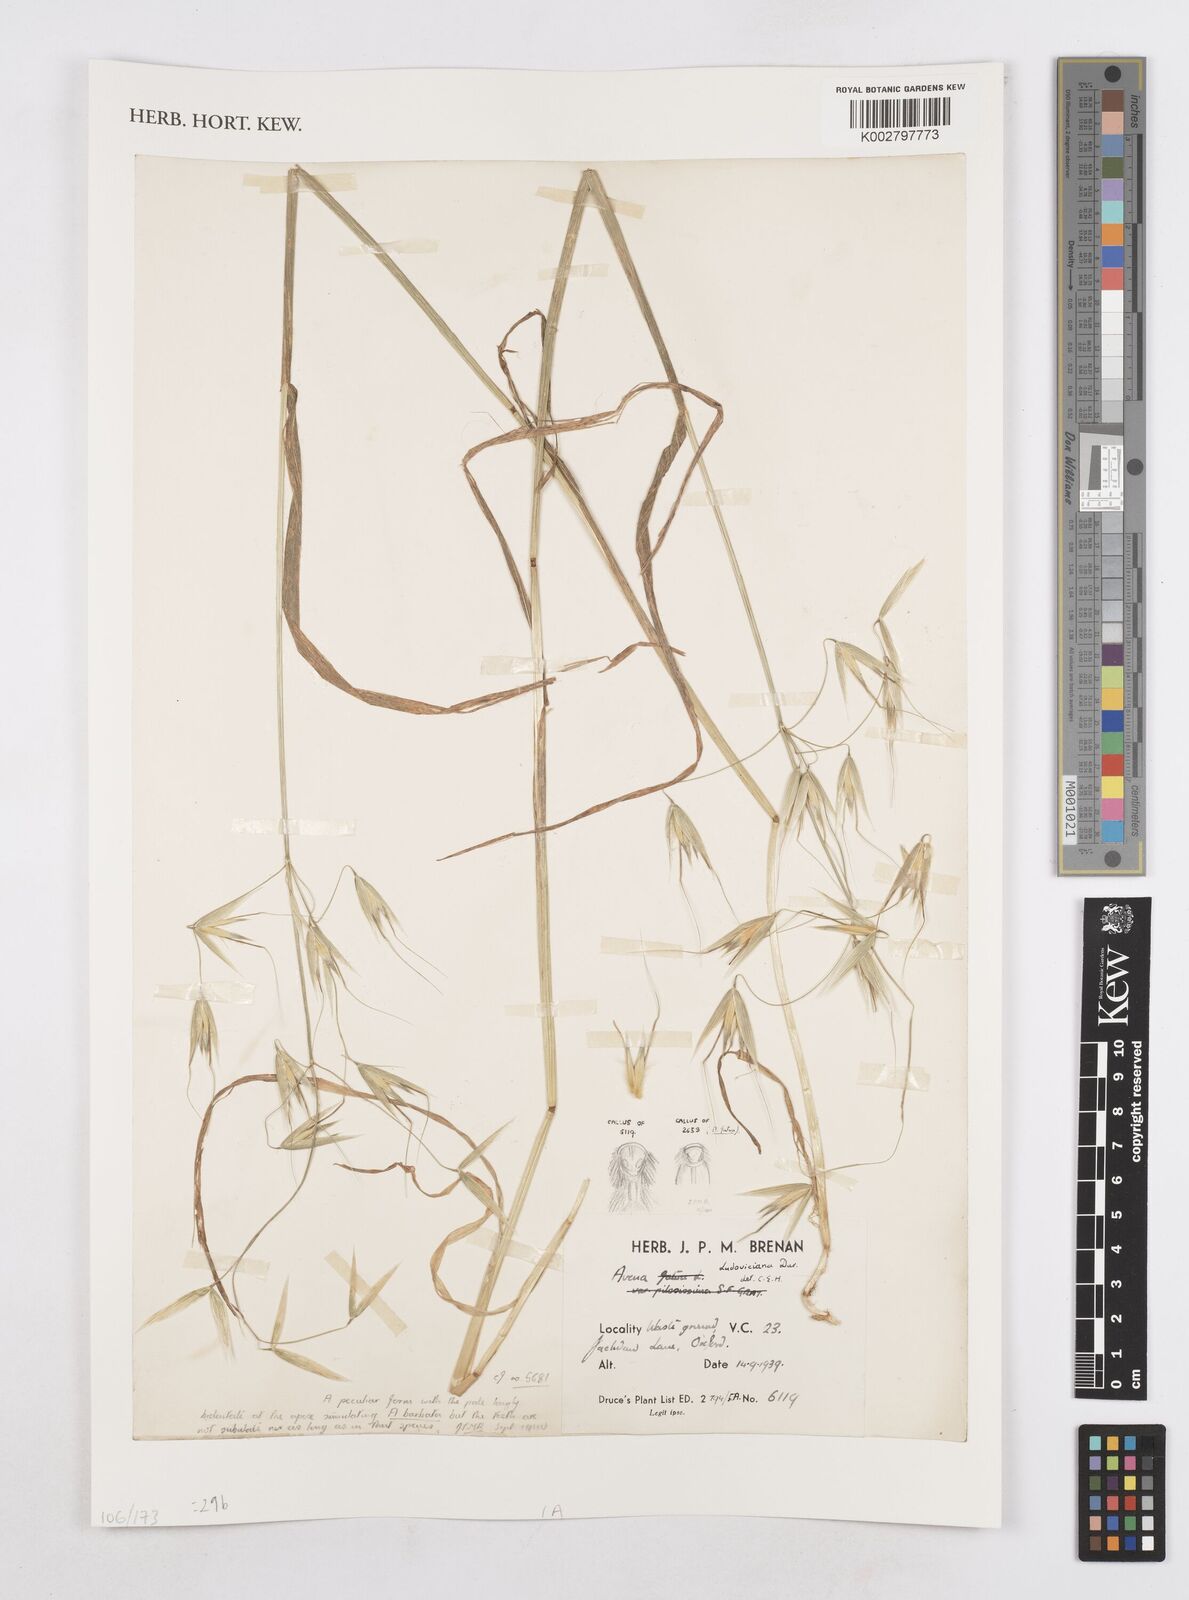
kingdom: Plantae
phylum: Tracheophyta
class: Liliopsida
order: Poales
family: Poaceae
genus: Avena
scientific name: Avena sterilis
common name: Animated oat
